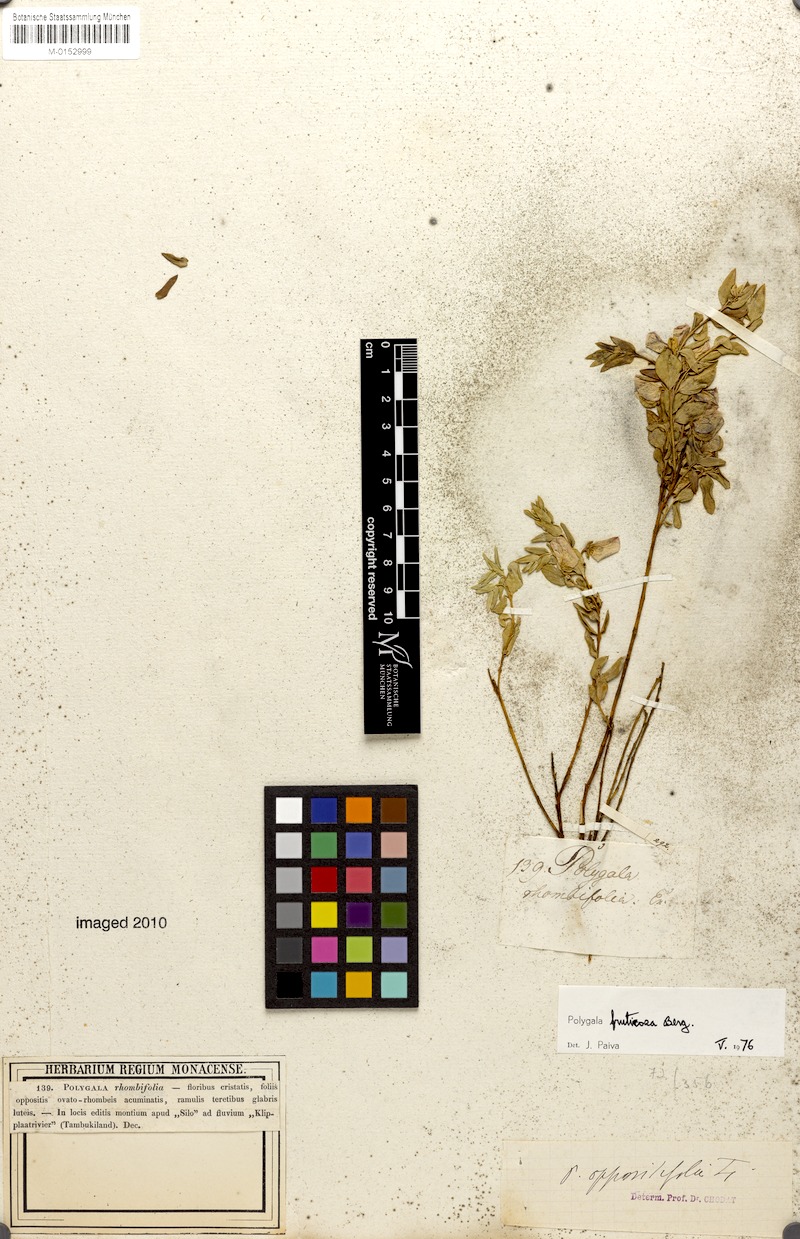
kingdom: Plantae
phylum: Tracheophyta
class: Magnoliopsida
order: Fabales
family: Polygalaceae
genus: Polygala
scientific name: Polygala fruticosa
